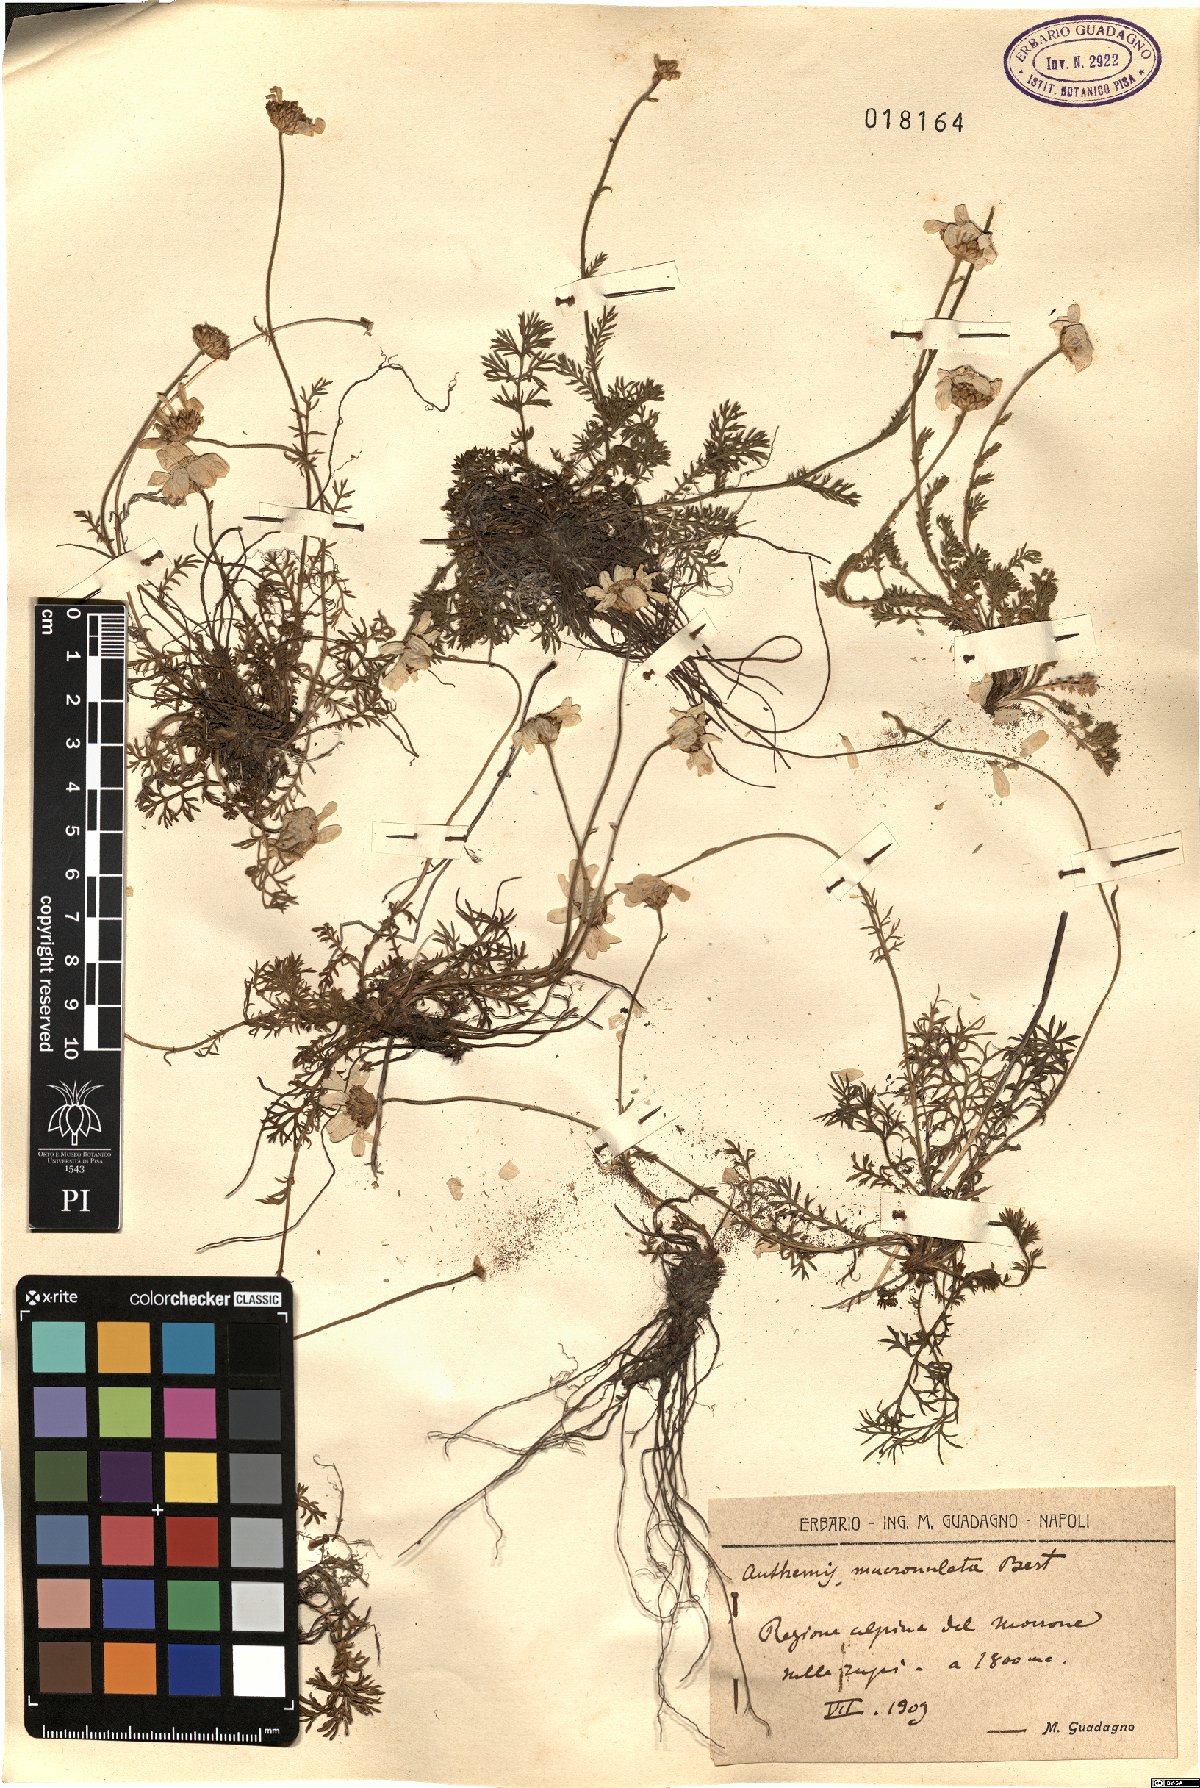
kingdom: Plantae
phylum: Tracheophyta
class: Magnoliopsida
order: Asterales
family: Asteraceae
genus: Achillea
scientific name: Achillea barrelieri
